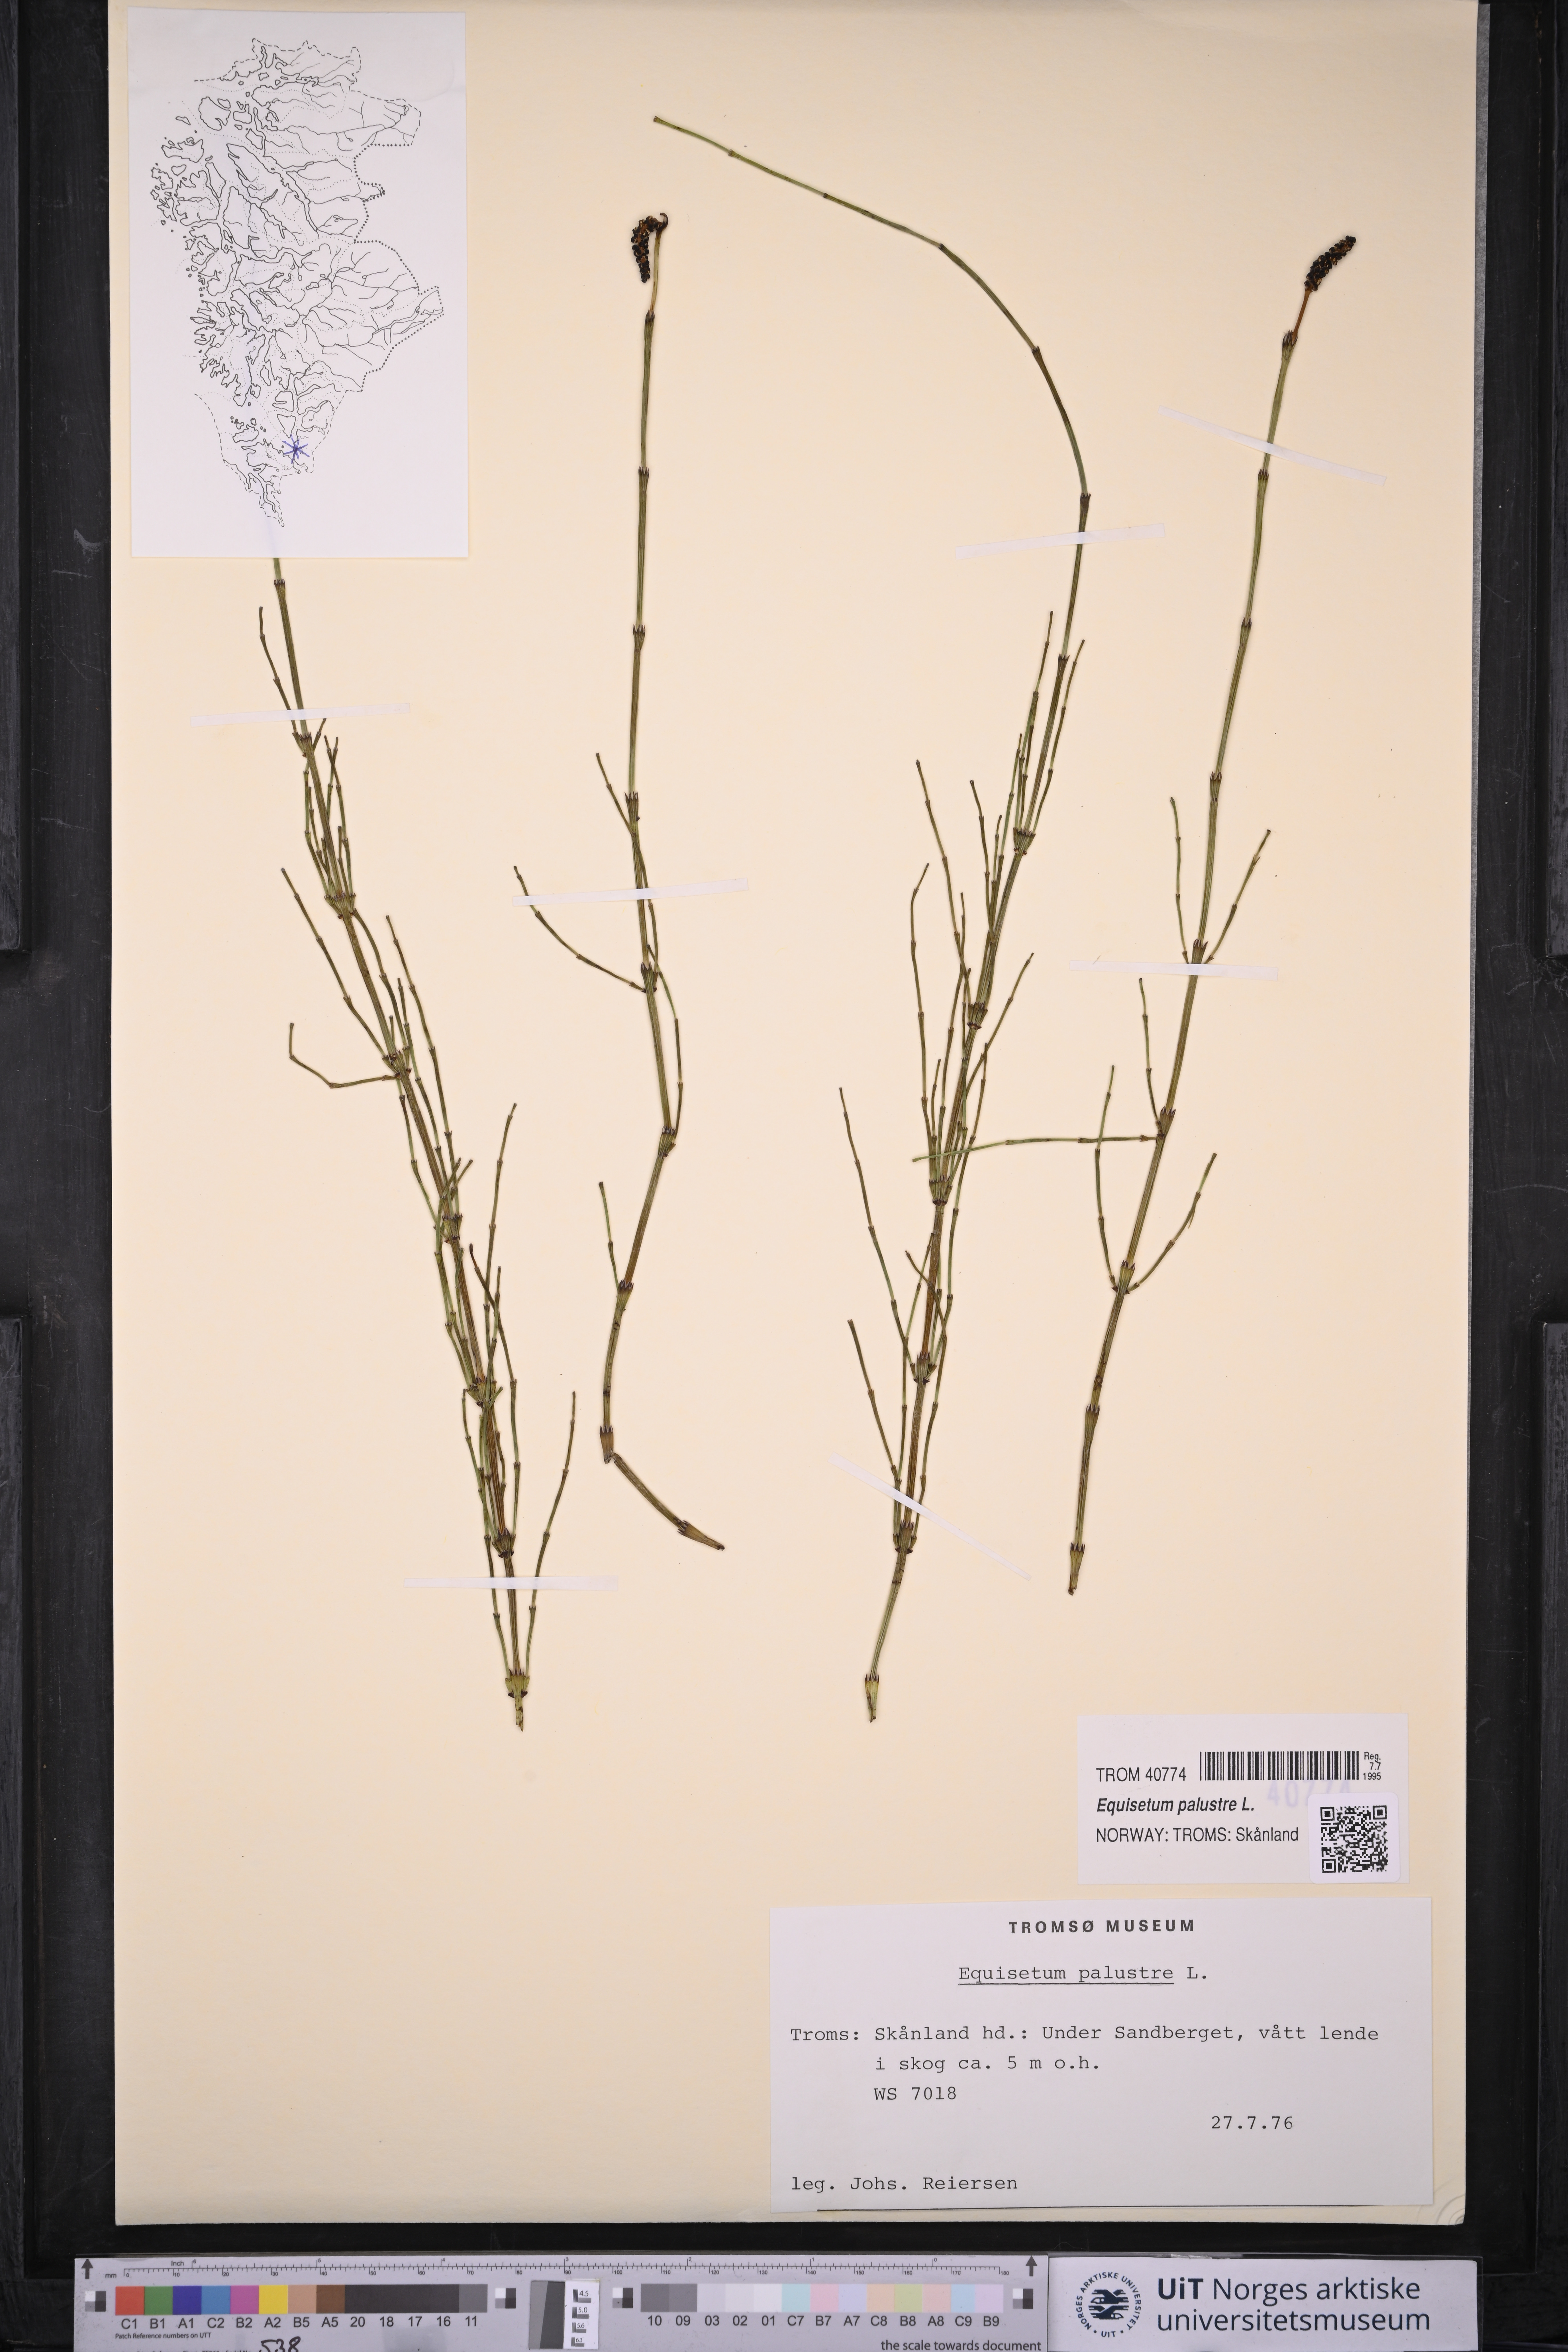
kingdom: Plantae
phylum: Tracheophyta
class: Polypodiopsida
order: Equisetales
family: Equisetaceae
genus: Equisetum
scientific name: Equisetum palustre
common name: Marsh horsetail
